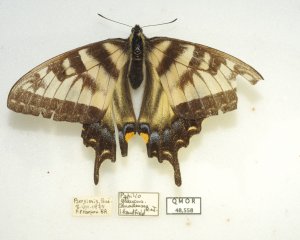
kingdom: Animalia
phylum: Arthropoda
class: Insecta
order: Lepidoptera
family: Papilionidae
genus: Pterourus
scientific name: Pterourus glaucus
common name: Eastern Tiger Swallowtail
